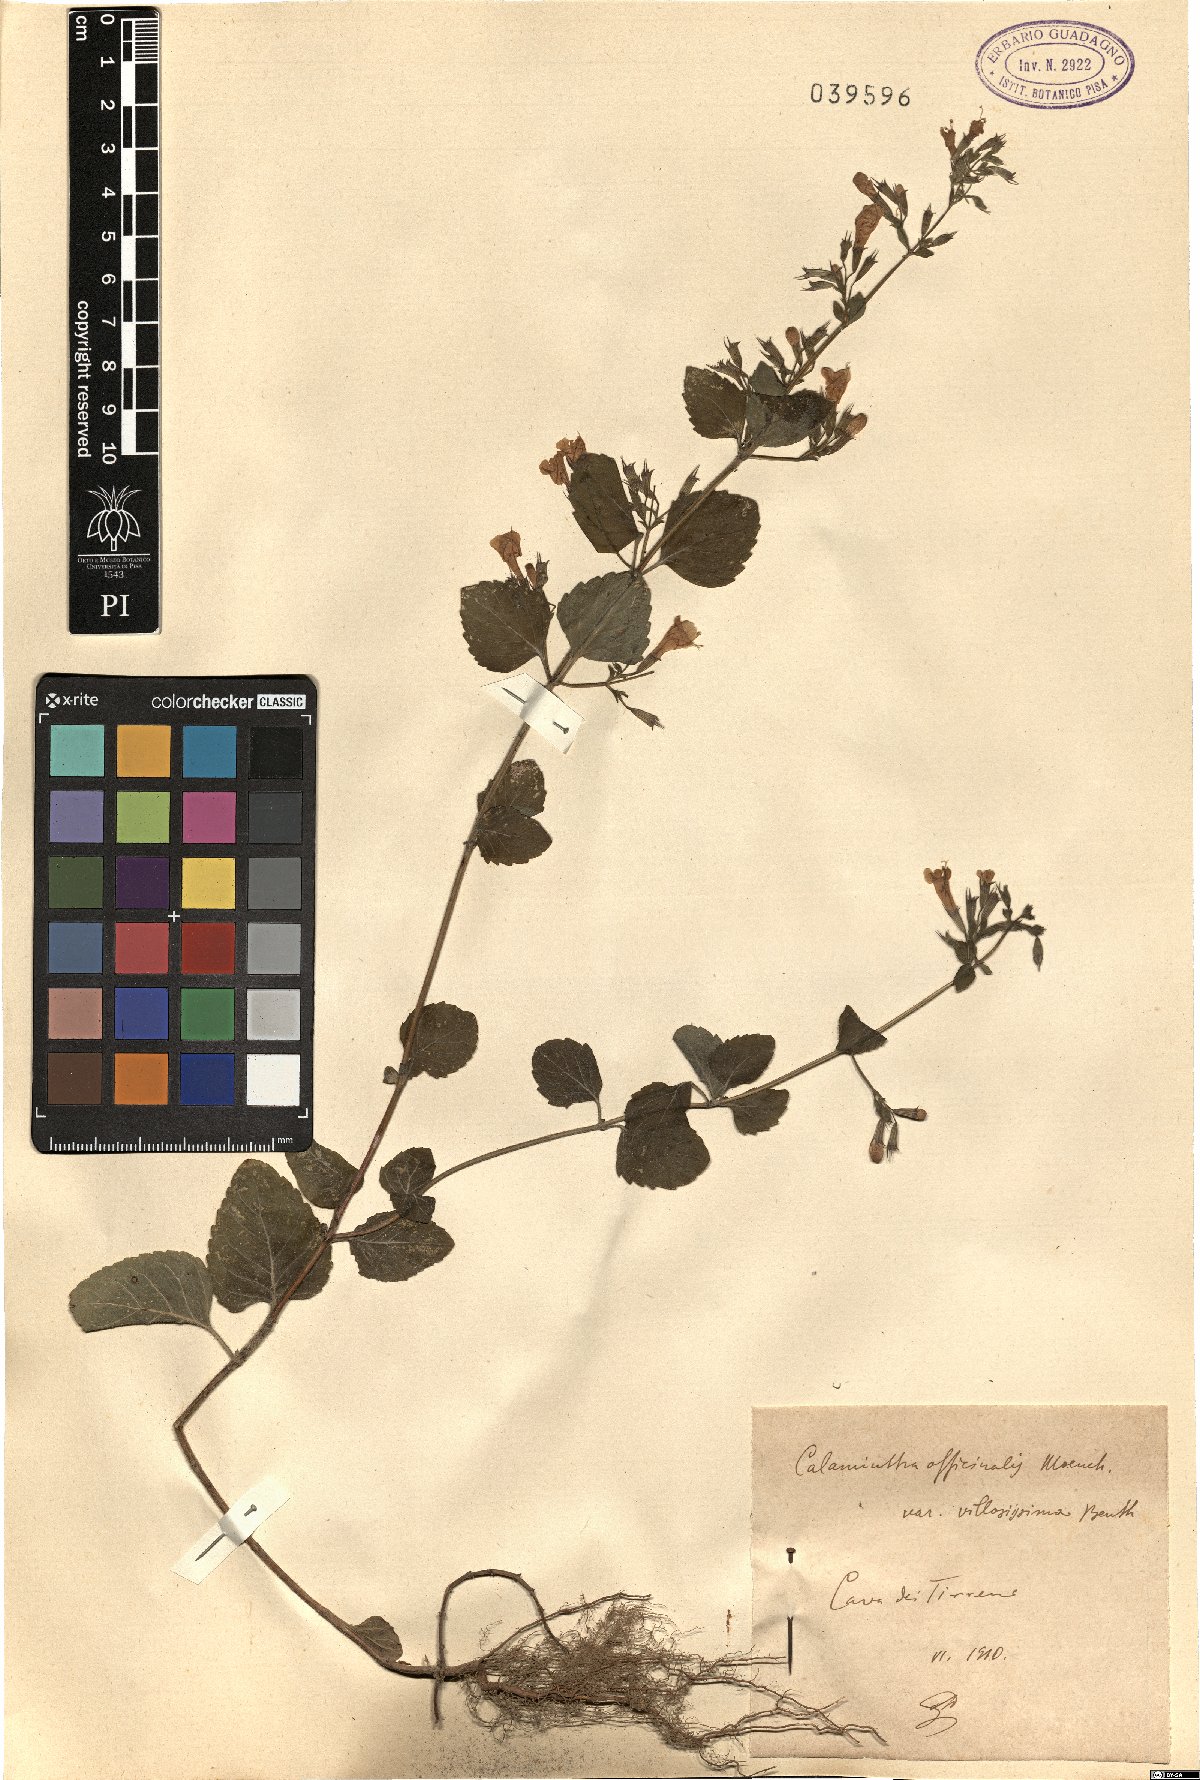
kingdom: Plantae
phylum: Tracheophyta
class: Magnoliopsida
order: Lamiales
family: Lamiaceae
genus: Clinopodium
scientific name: Clinopodium nepeta
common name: Lesser calamint
